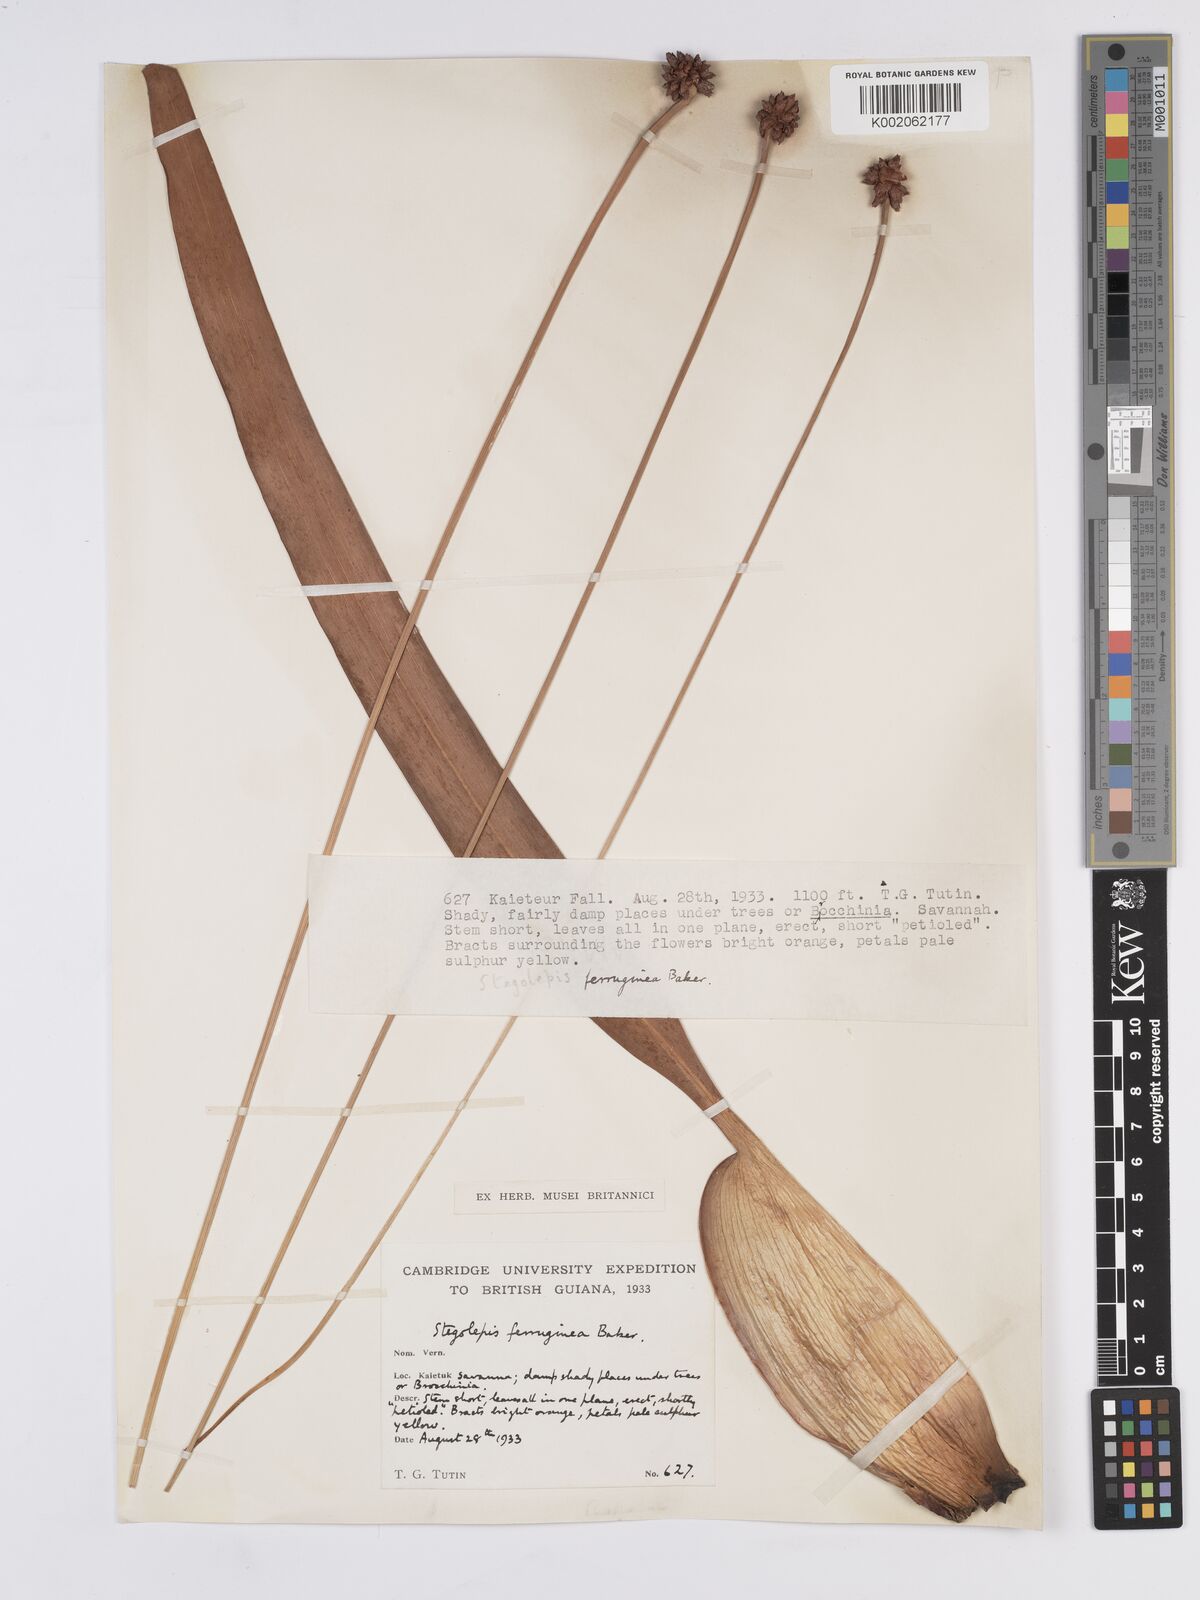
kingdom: Plantae
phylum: Tracheophyta
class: Liliopsida
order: Poales
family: Rapateaceae
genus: Stegolepis
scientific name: Stegolepis ferruginea
